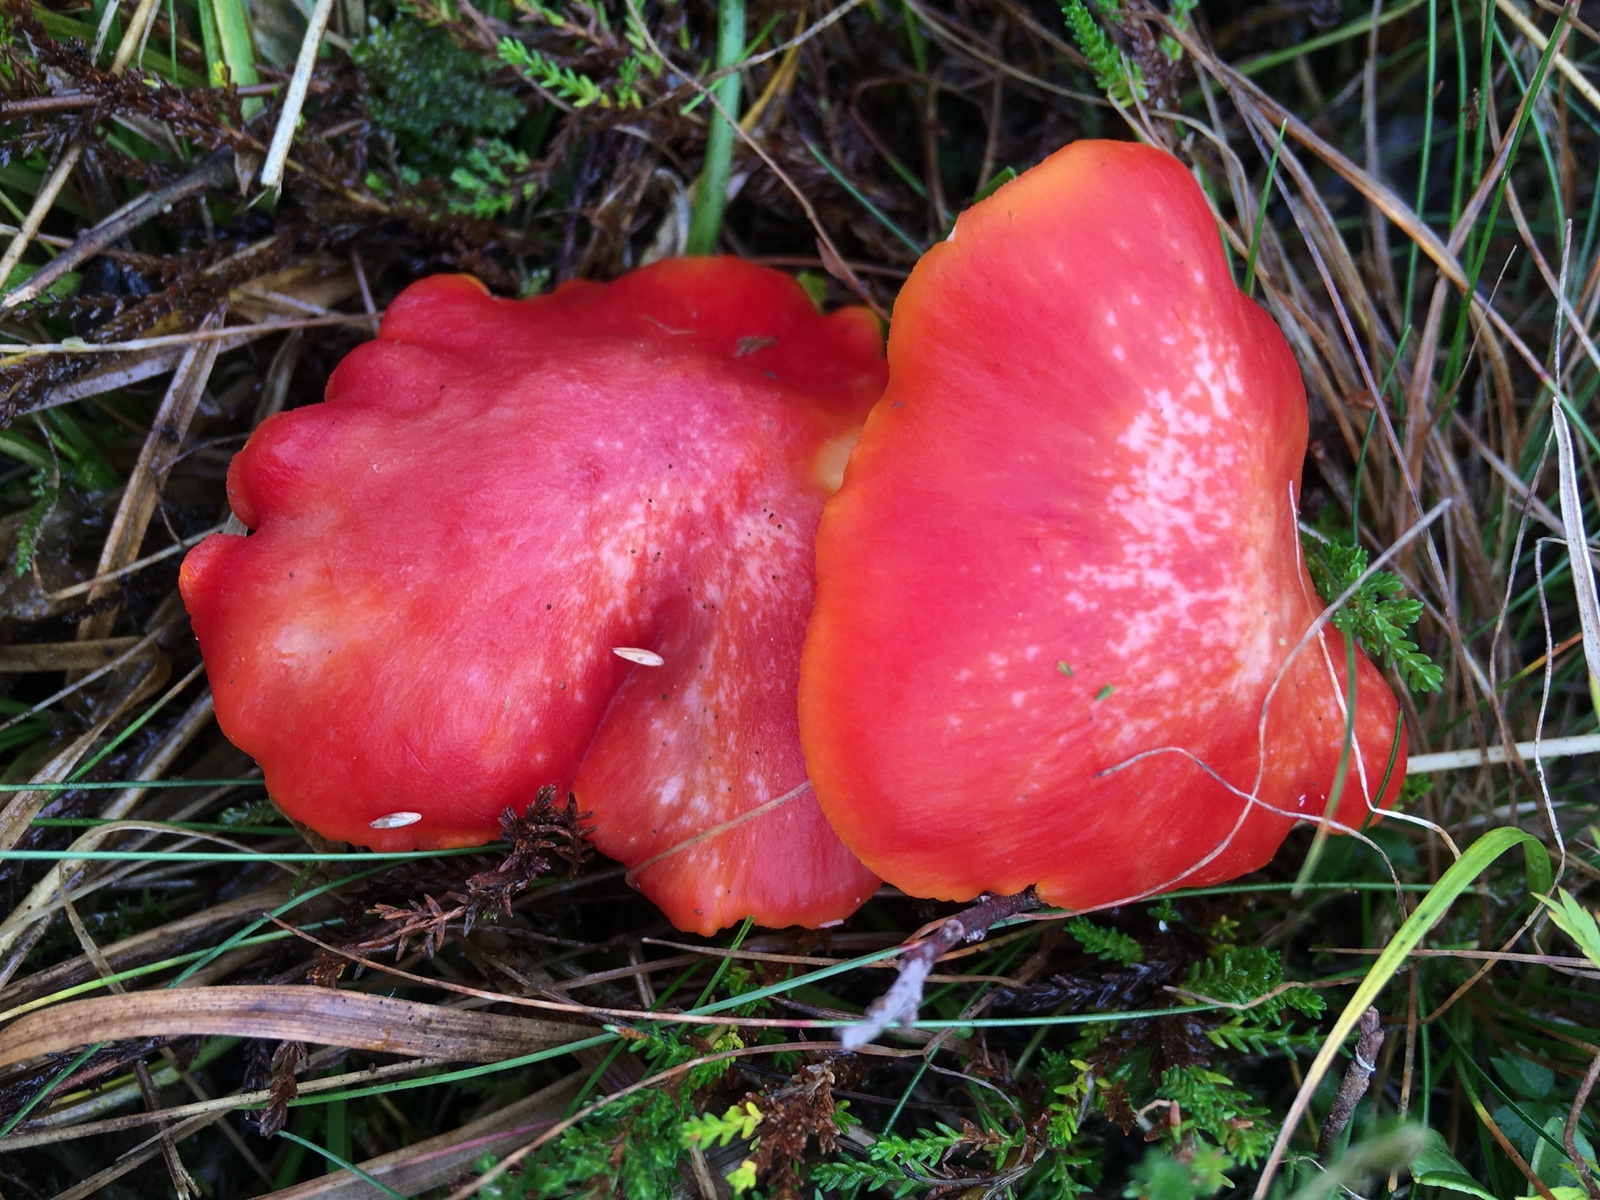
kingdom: Fungi
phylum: Basidiomycota
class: Agaricomycetes
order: Agaricales
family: Hygrophoraceae
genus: Hygrocybe
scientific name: Hygrocybe splendidissima
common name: knaldrød vokshat
